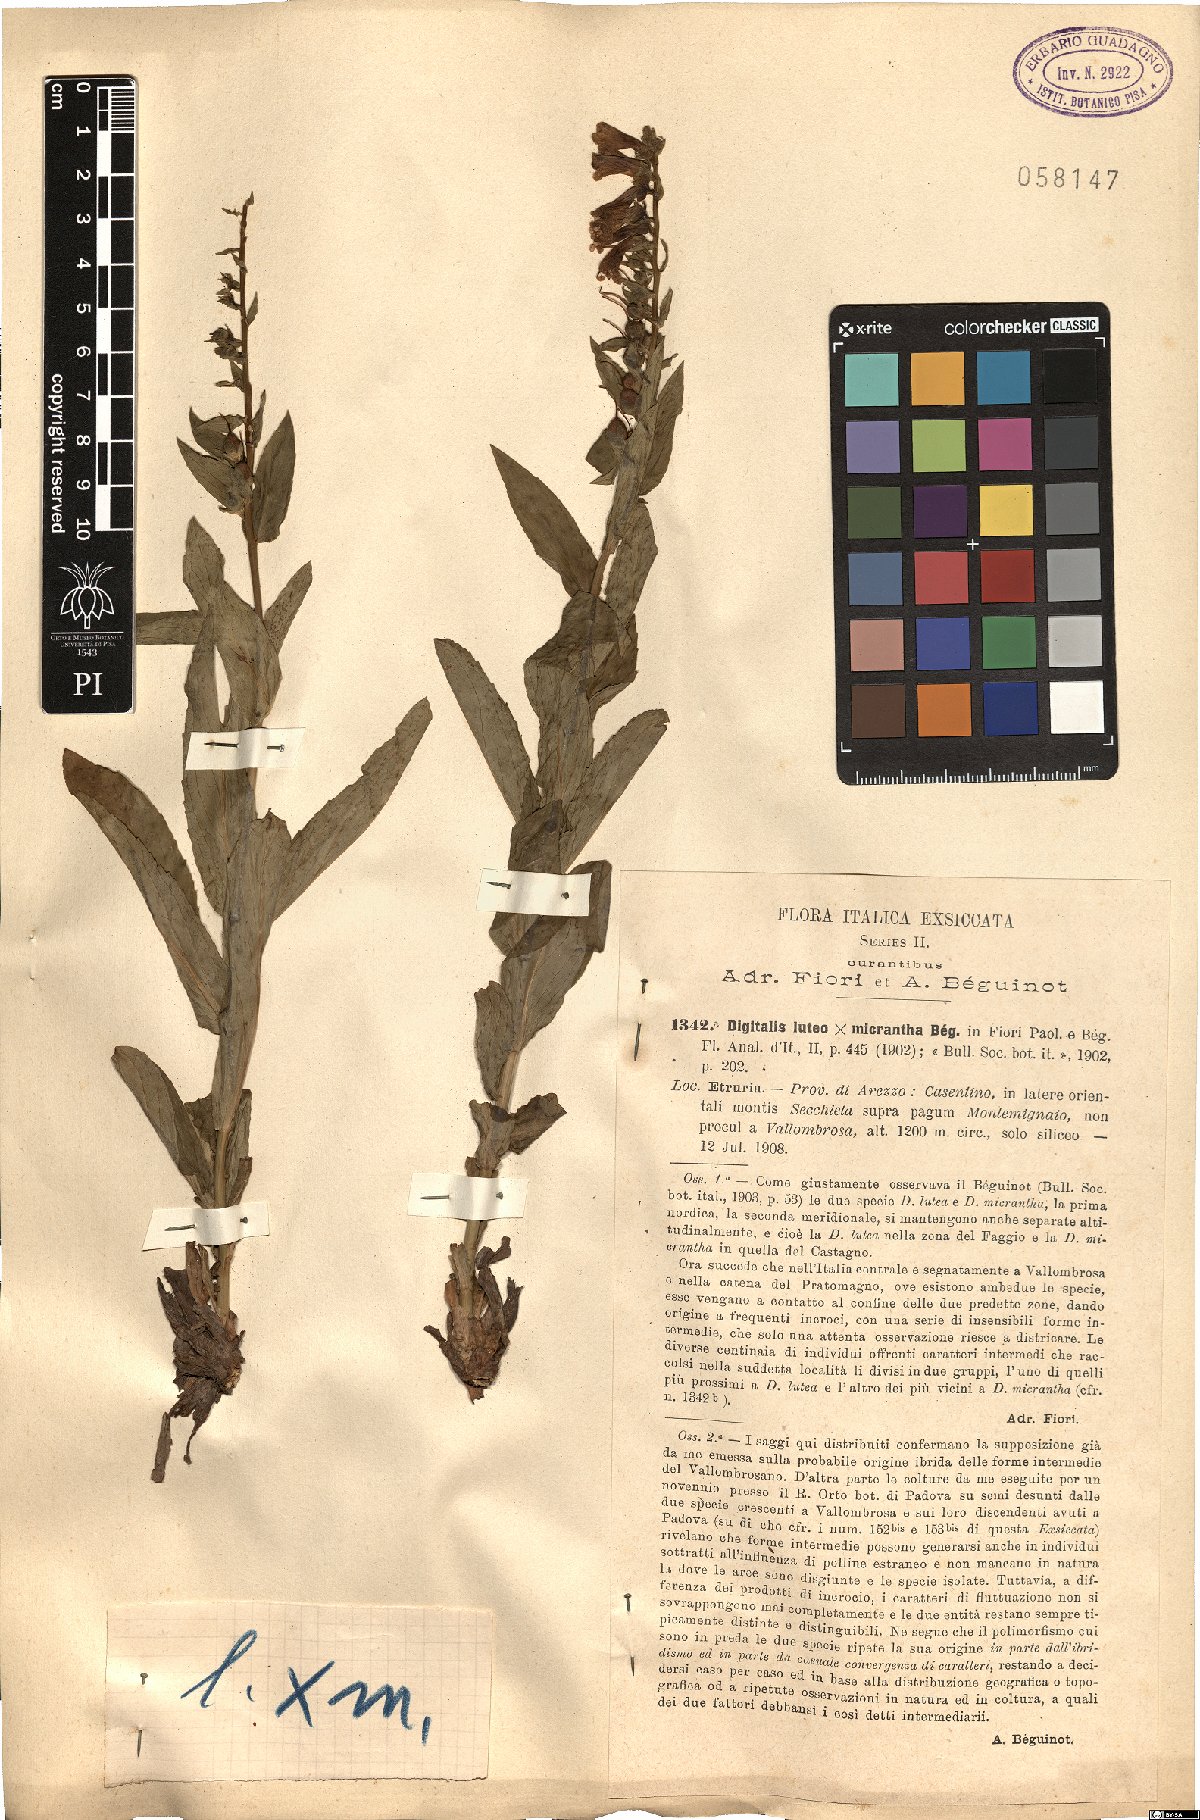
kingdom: Plantae
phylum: Tracheophyta
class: Magnoliopsida
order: Lamiales
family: Scrophulariaceae
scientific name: Scrophulariaceae
